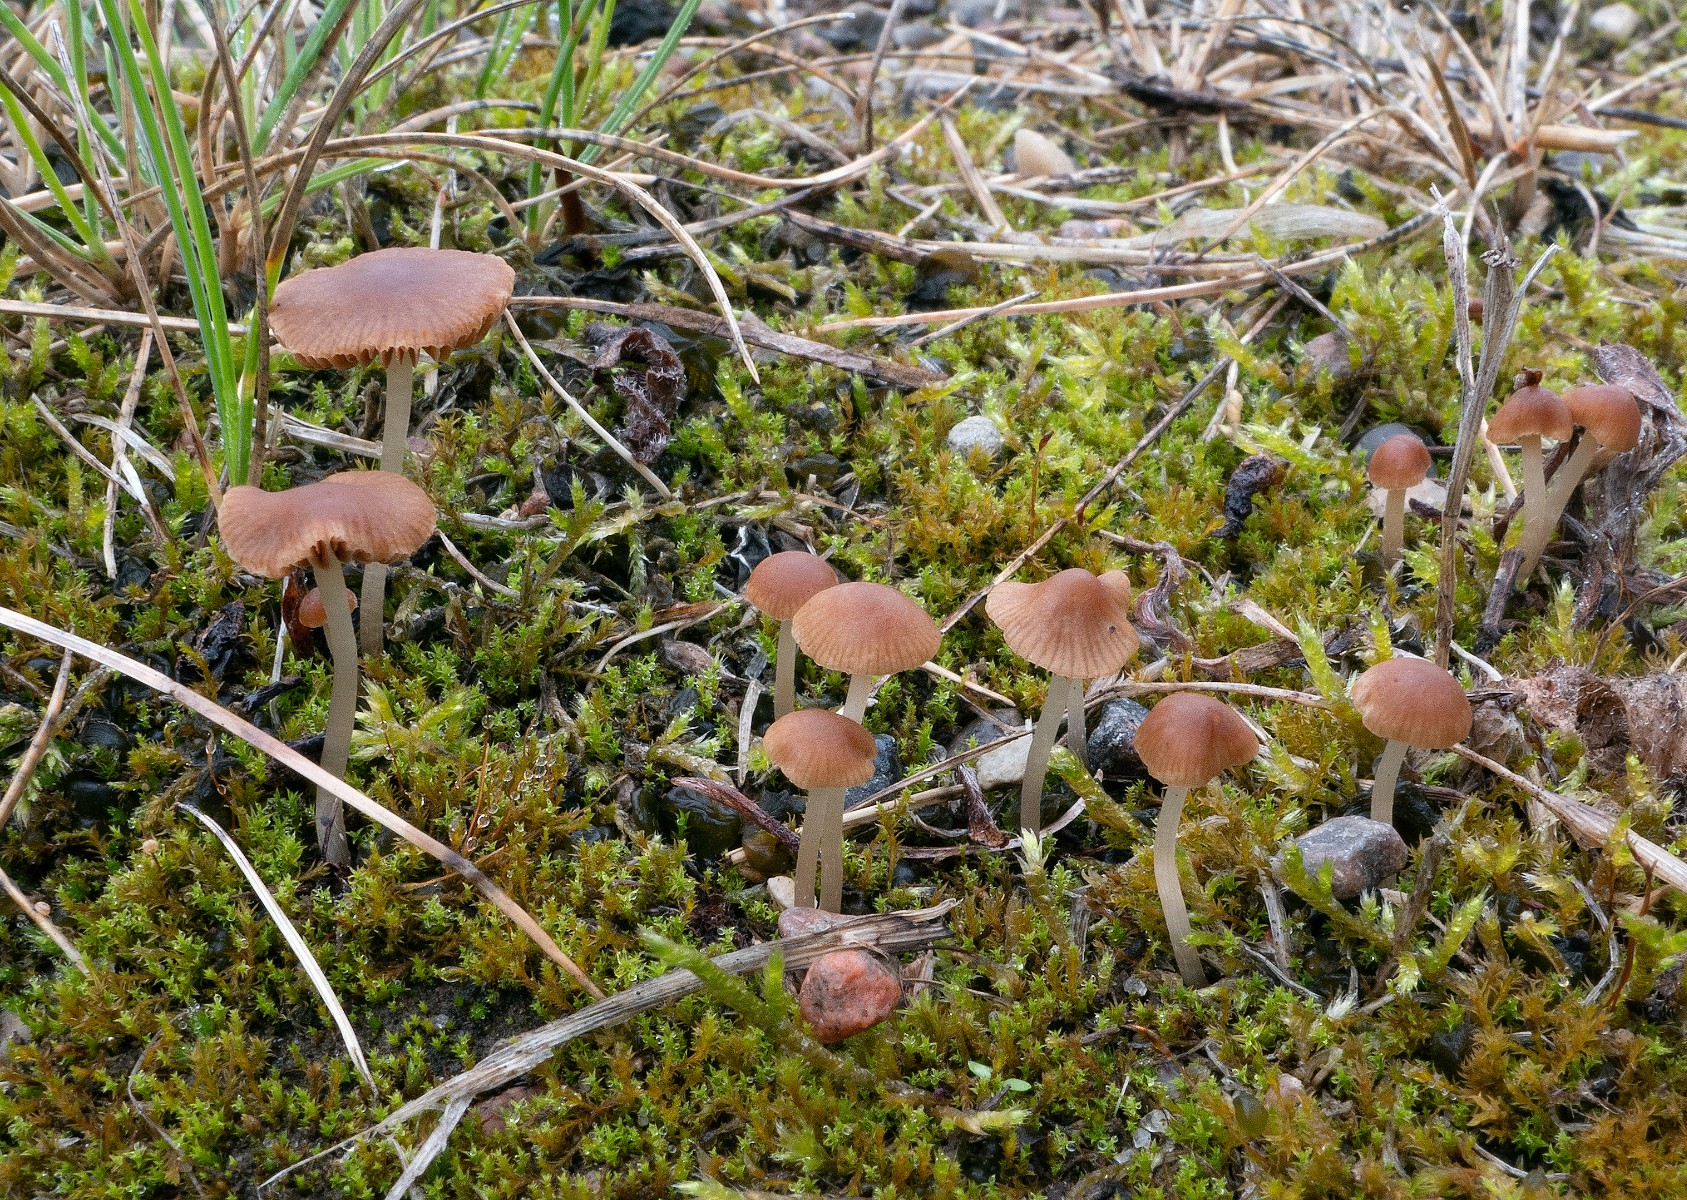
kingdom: Fungi
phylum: Basidiomycota
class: Agaricomycetes
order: Agaricales
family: Bolbitiaceae
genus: Pholiotina
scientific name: Pholiotina cyanopus
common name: blåfodet dansehat
